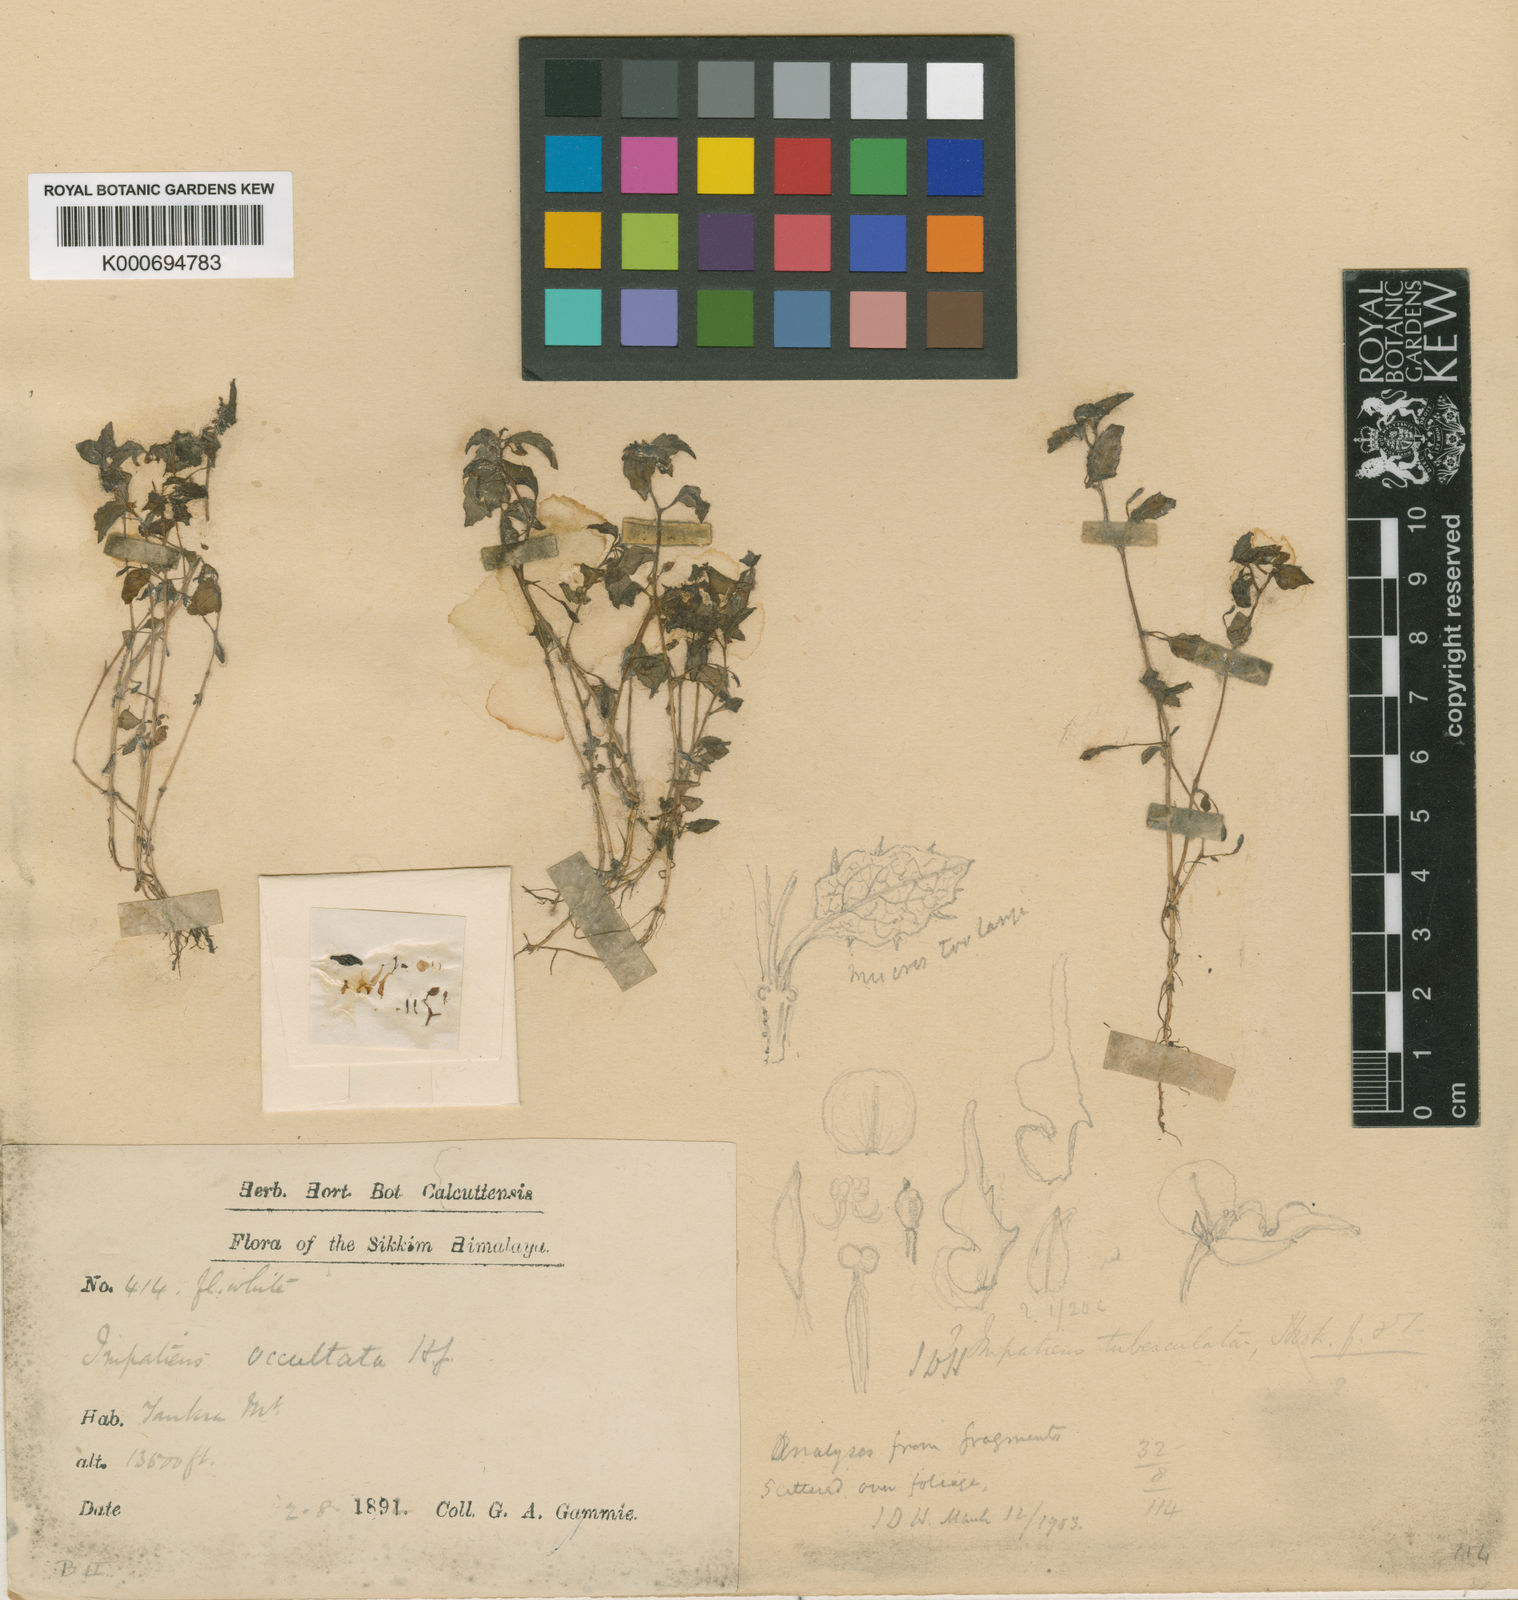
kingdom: Plantae
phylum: Tracheophyta
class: Magnoliopsida
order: Ericales
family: Balsaminaceae
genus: Impatiens
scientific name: Impatiens occultans
